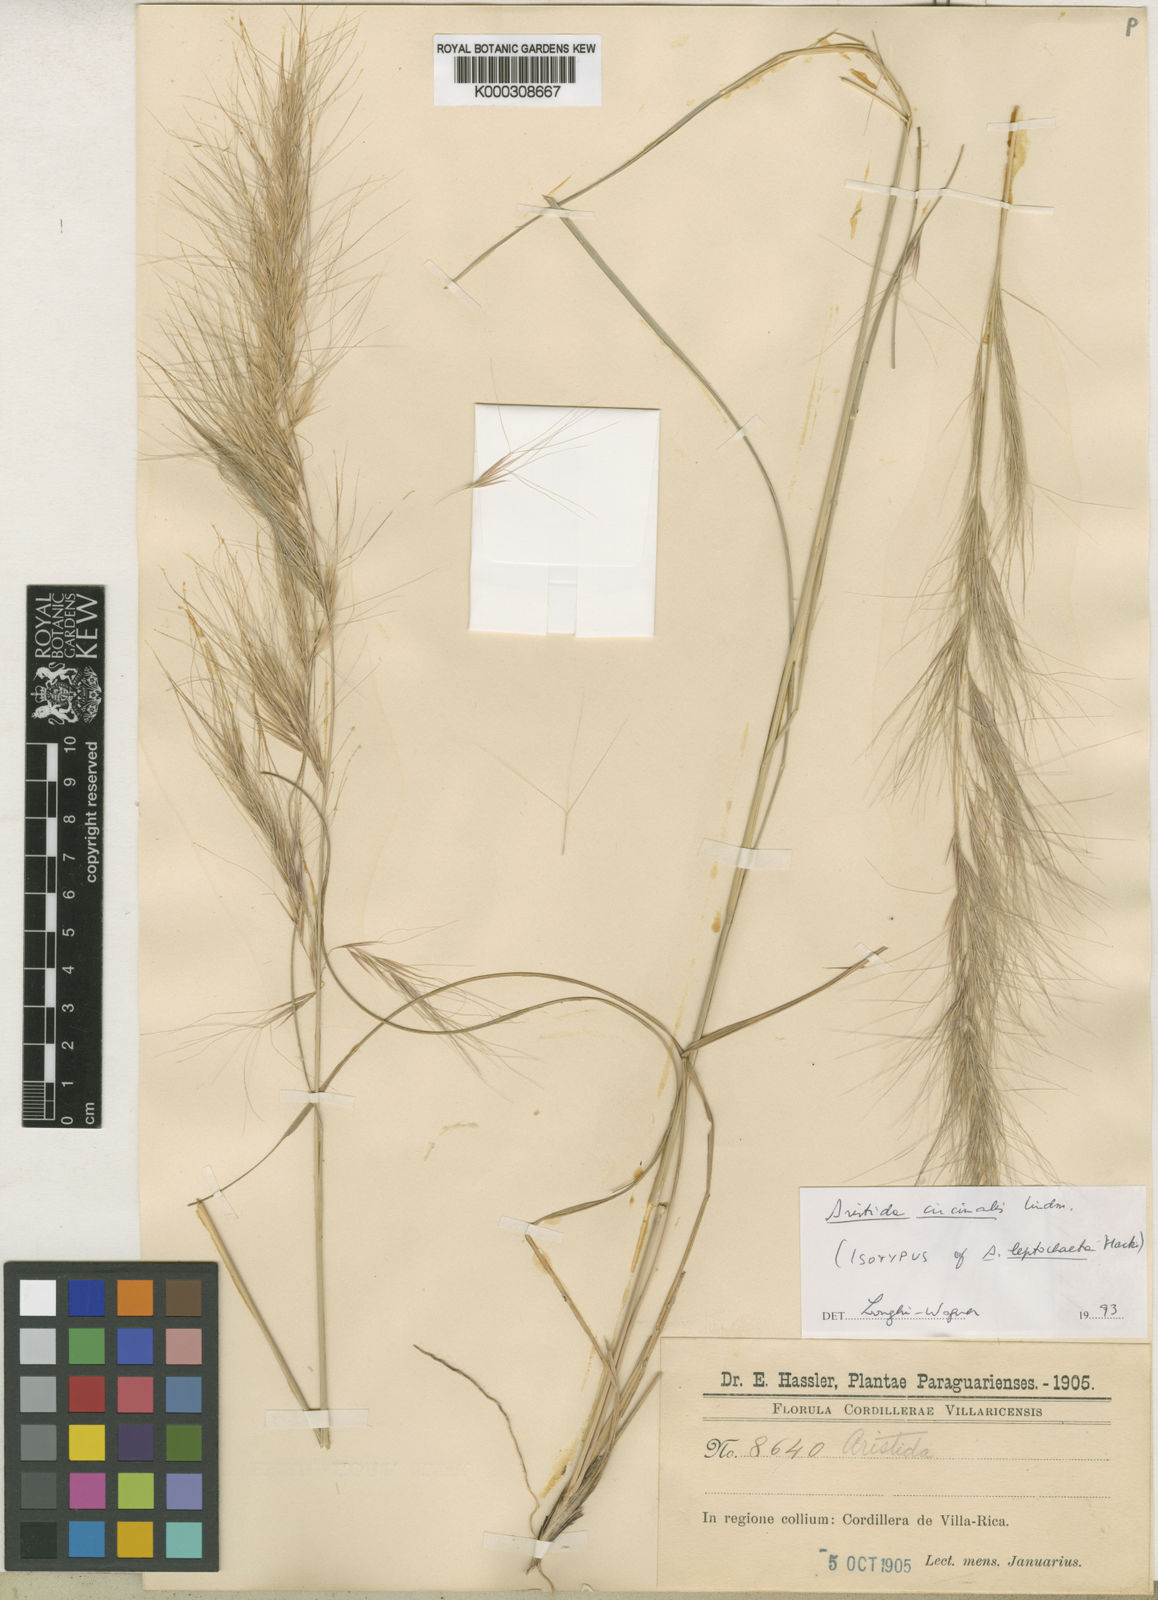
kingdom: Plantae
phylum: Tracheophyta
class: Liliopsida
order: Poales
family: Poaceae
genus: Aristida
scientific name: Aristida circinalis
